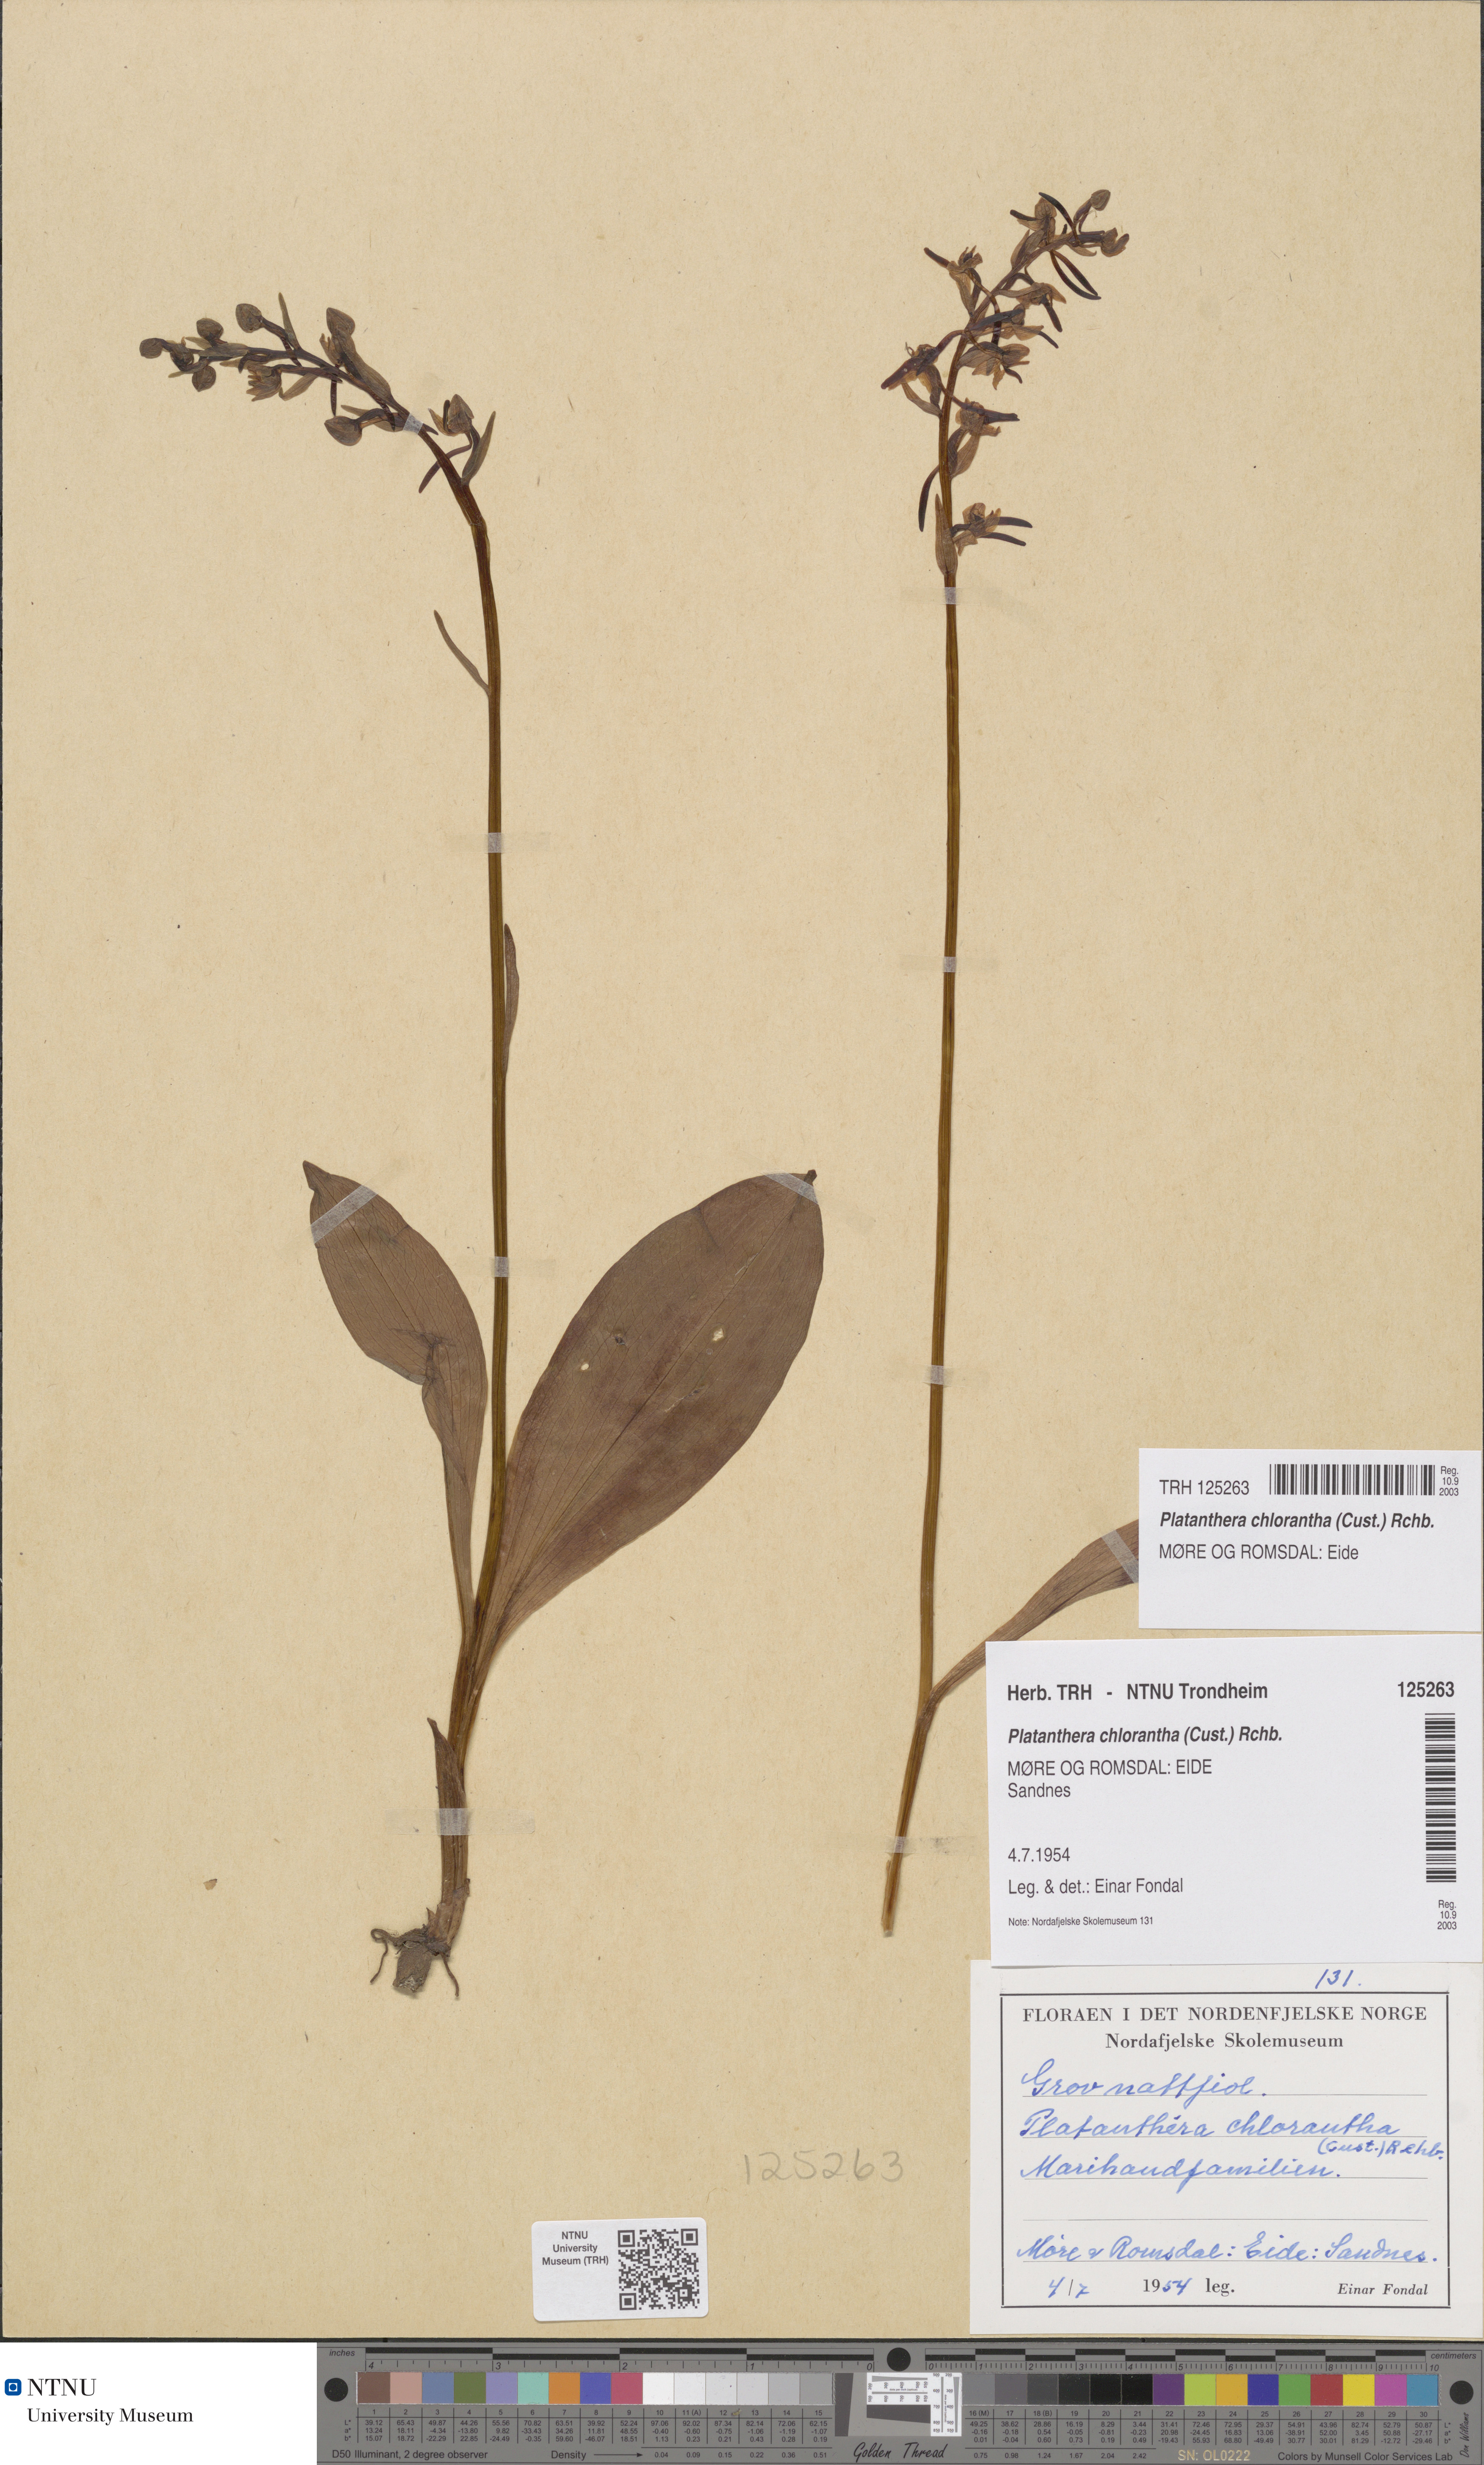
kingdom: Plantae
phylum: Tracheophyta
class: Liliopsida
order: Asparagales
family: Orchidaceae
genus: Platanthera
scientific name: Platanthera chlorantha
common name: Greater butterfly-orchid
